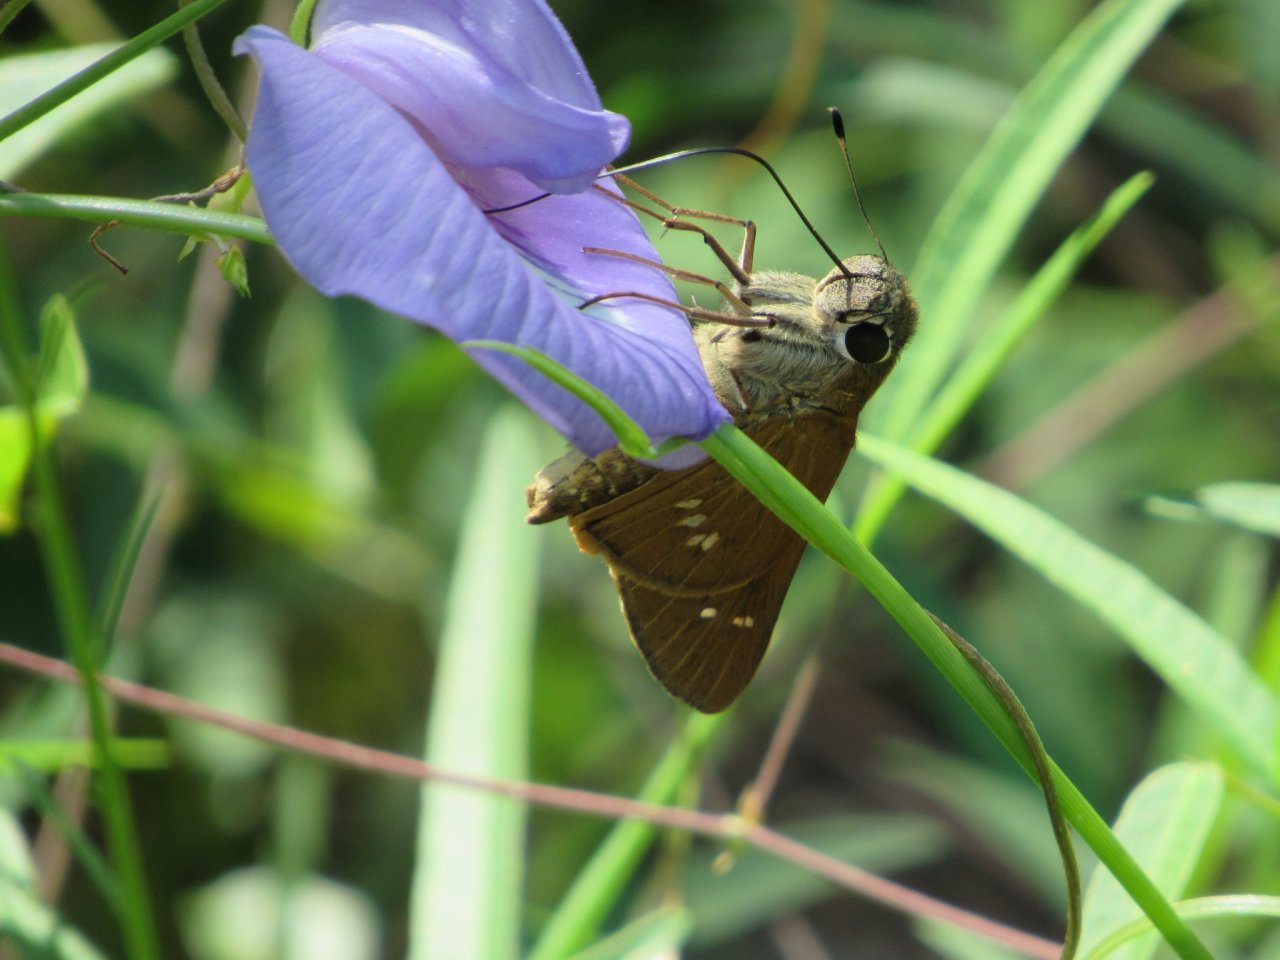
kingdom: Animalia
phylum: Arthropoda
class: Insecta
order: Lepidoptera
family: Hesperiidae
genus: Calpodes
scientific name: Calpodes ethlius
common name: Brazilian Skipper
